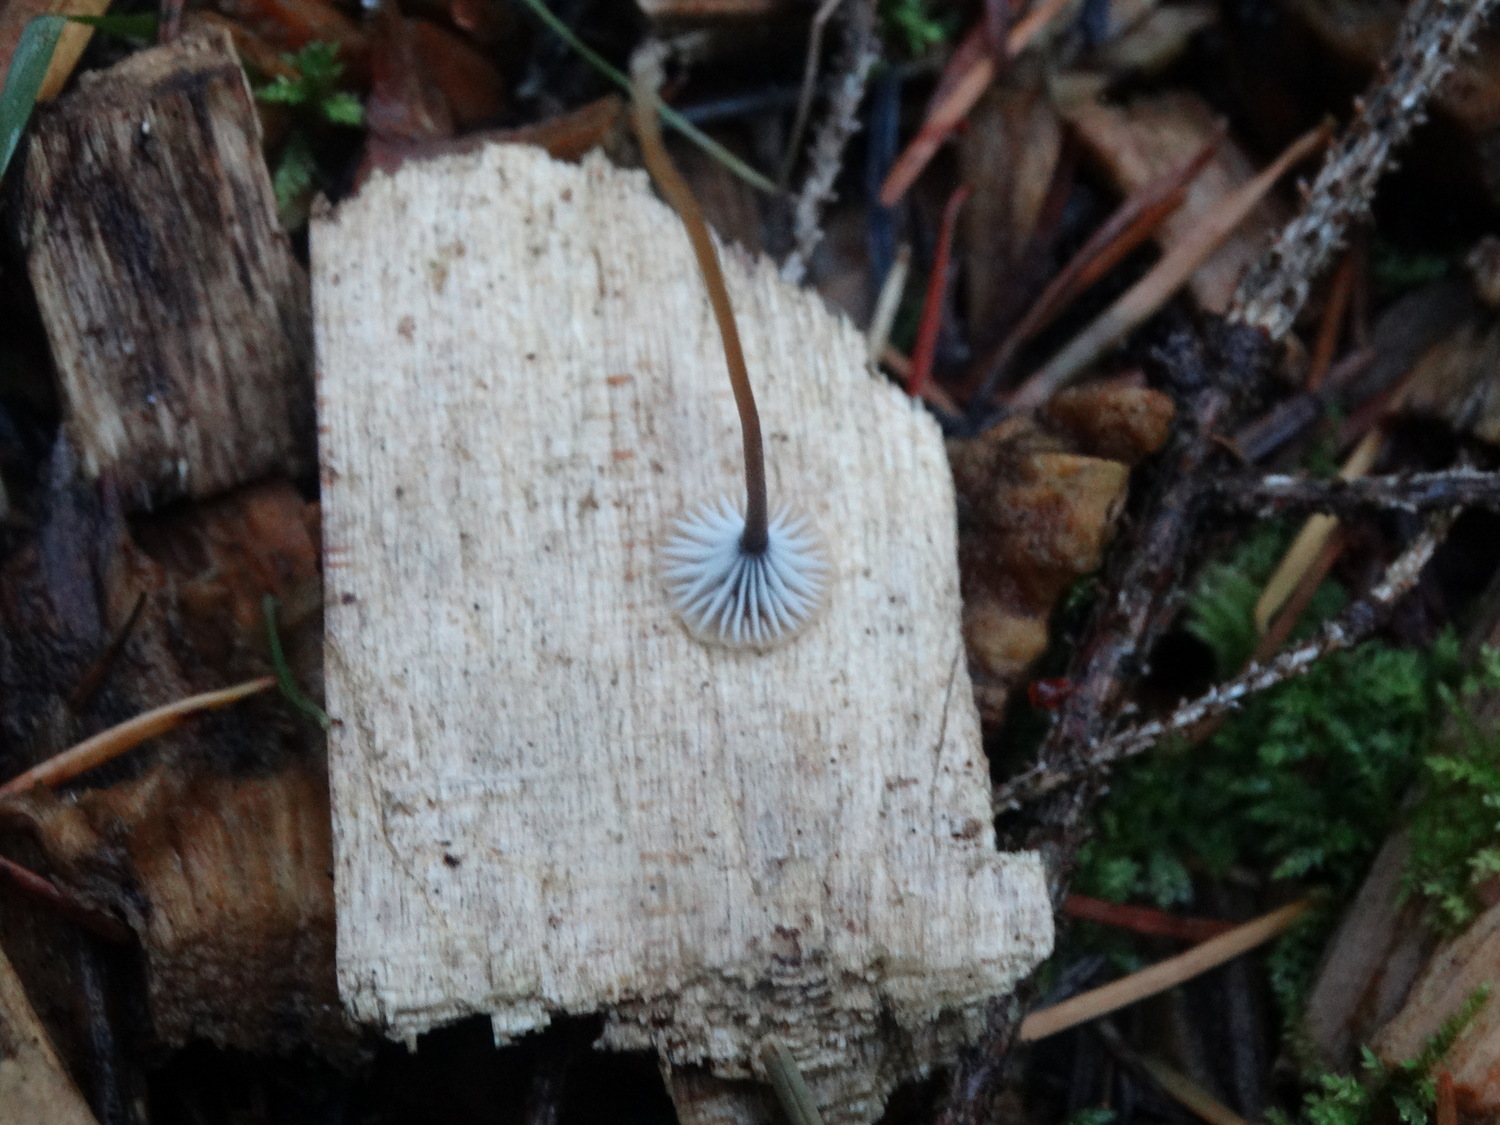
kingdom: Fungi
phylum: Basidiomycota
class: Agaricomycetes
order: Hymenochaetales
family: Rickenellaceae
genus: Rickenella
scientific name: Rickenella swartzii
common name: finstokket mosnavlehat
